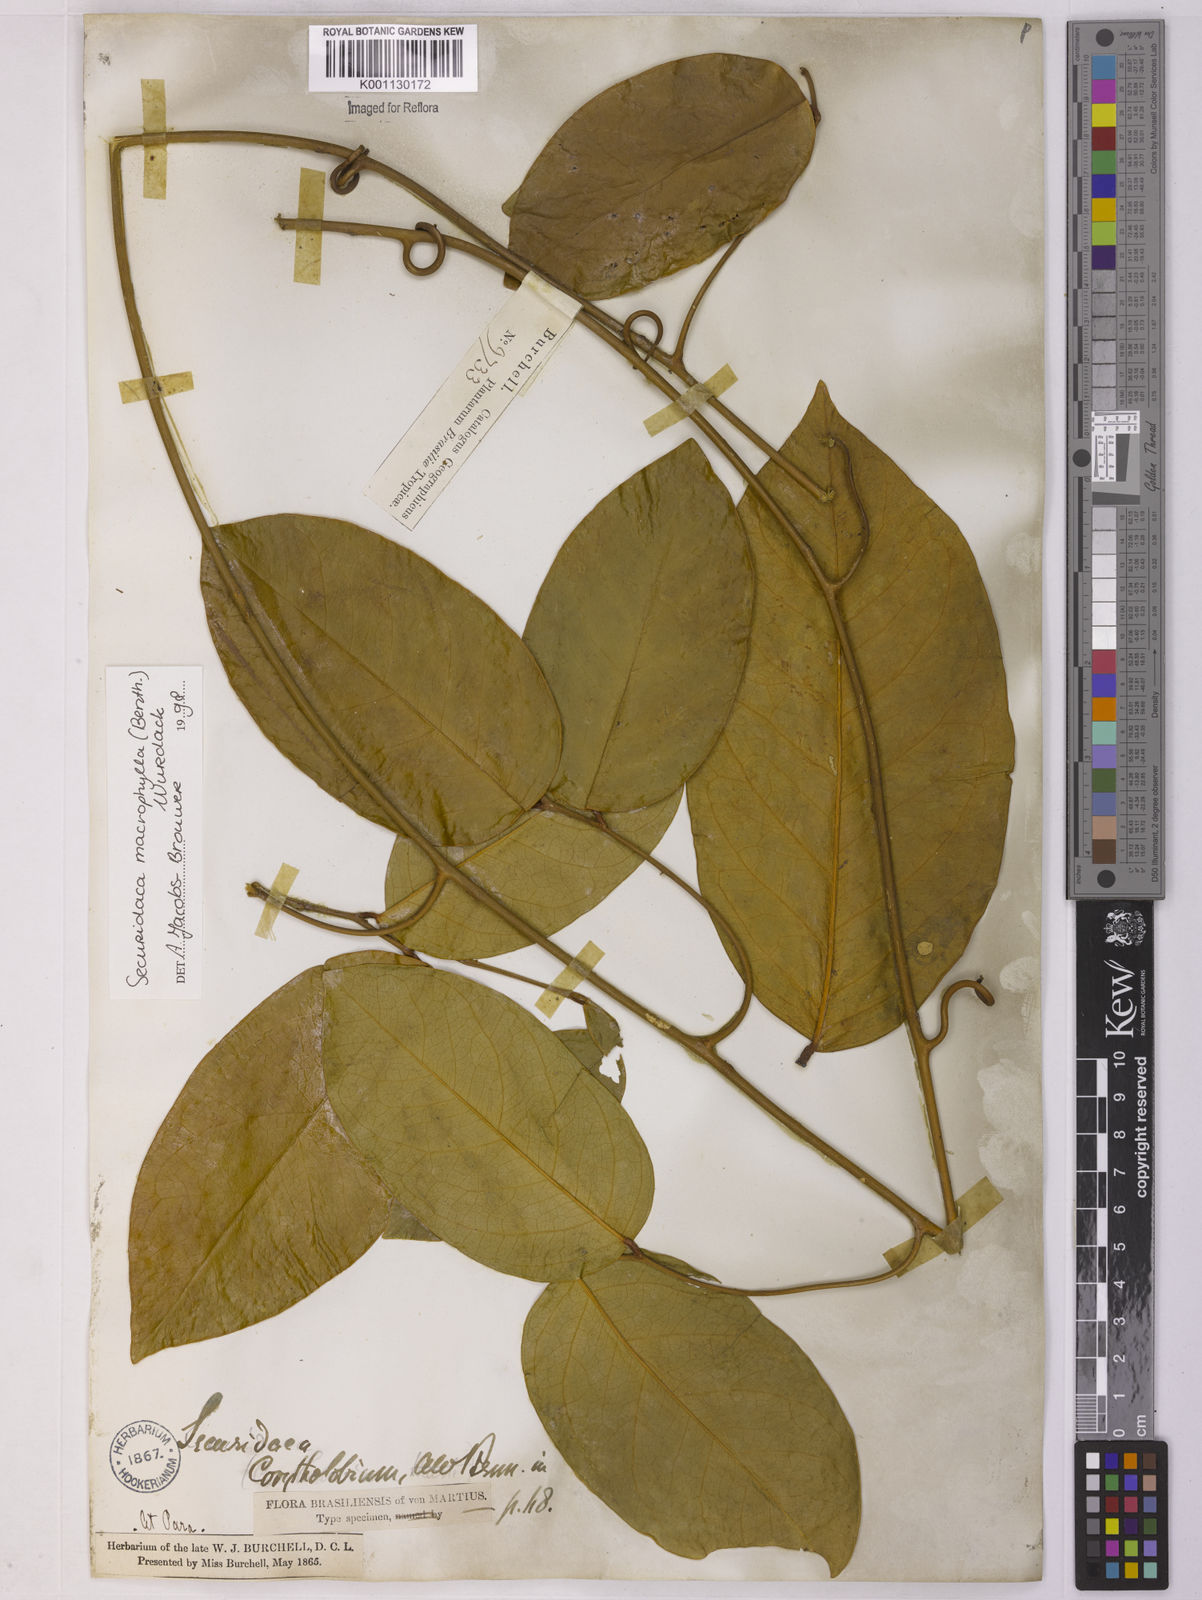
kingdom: Plantae
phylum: Tracheophyta
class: Magnoliopsida
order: Fabales
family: Polygalaceae
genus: Securidaca
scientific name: Securidaca calophylla
